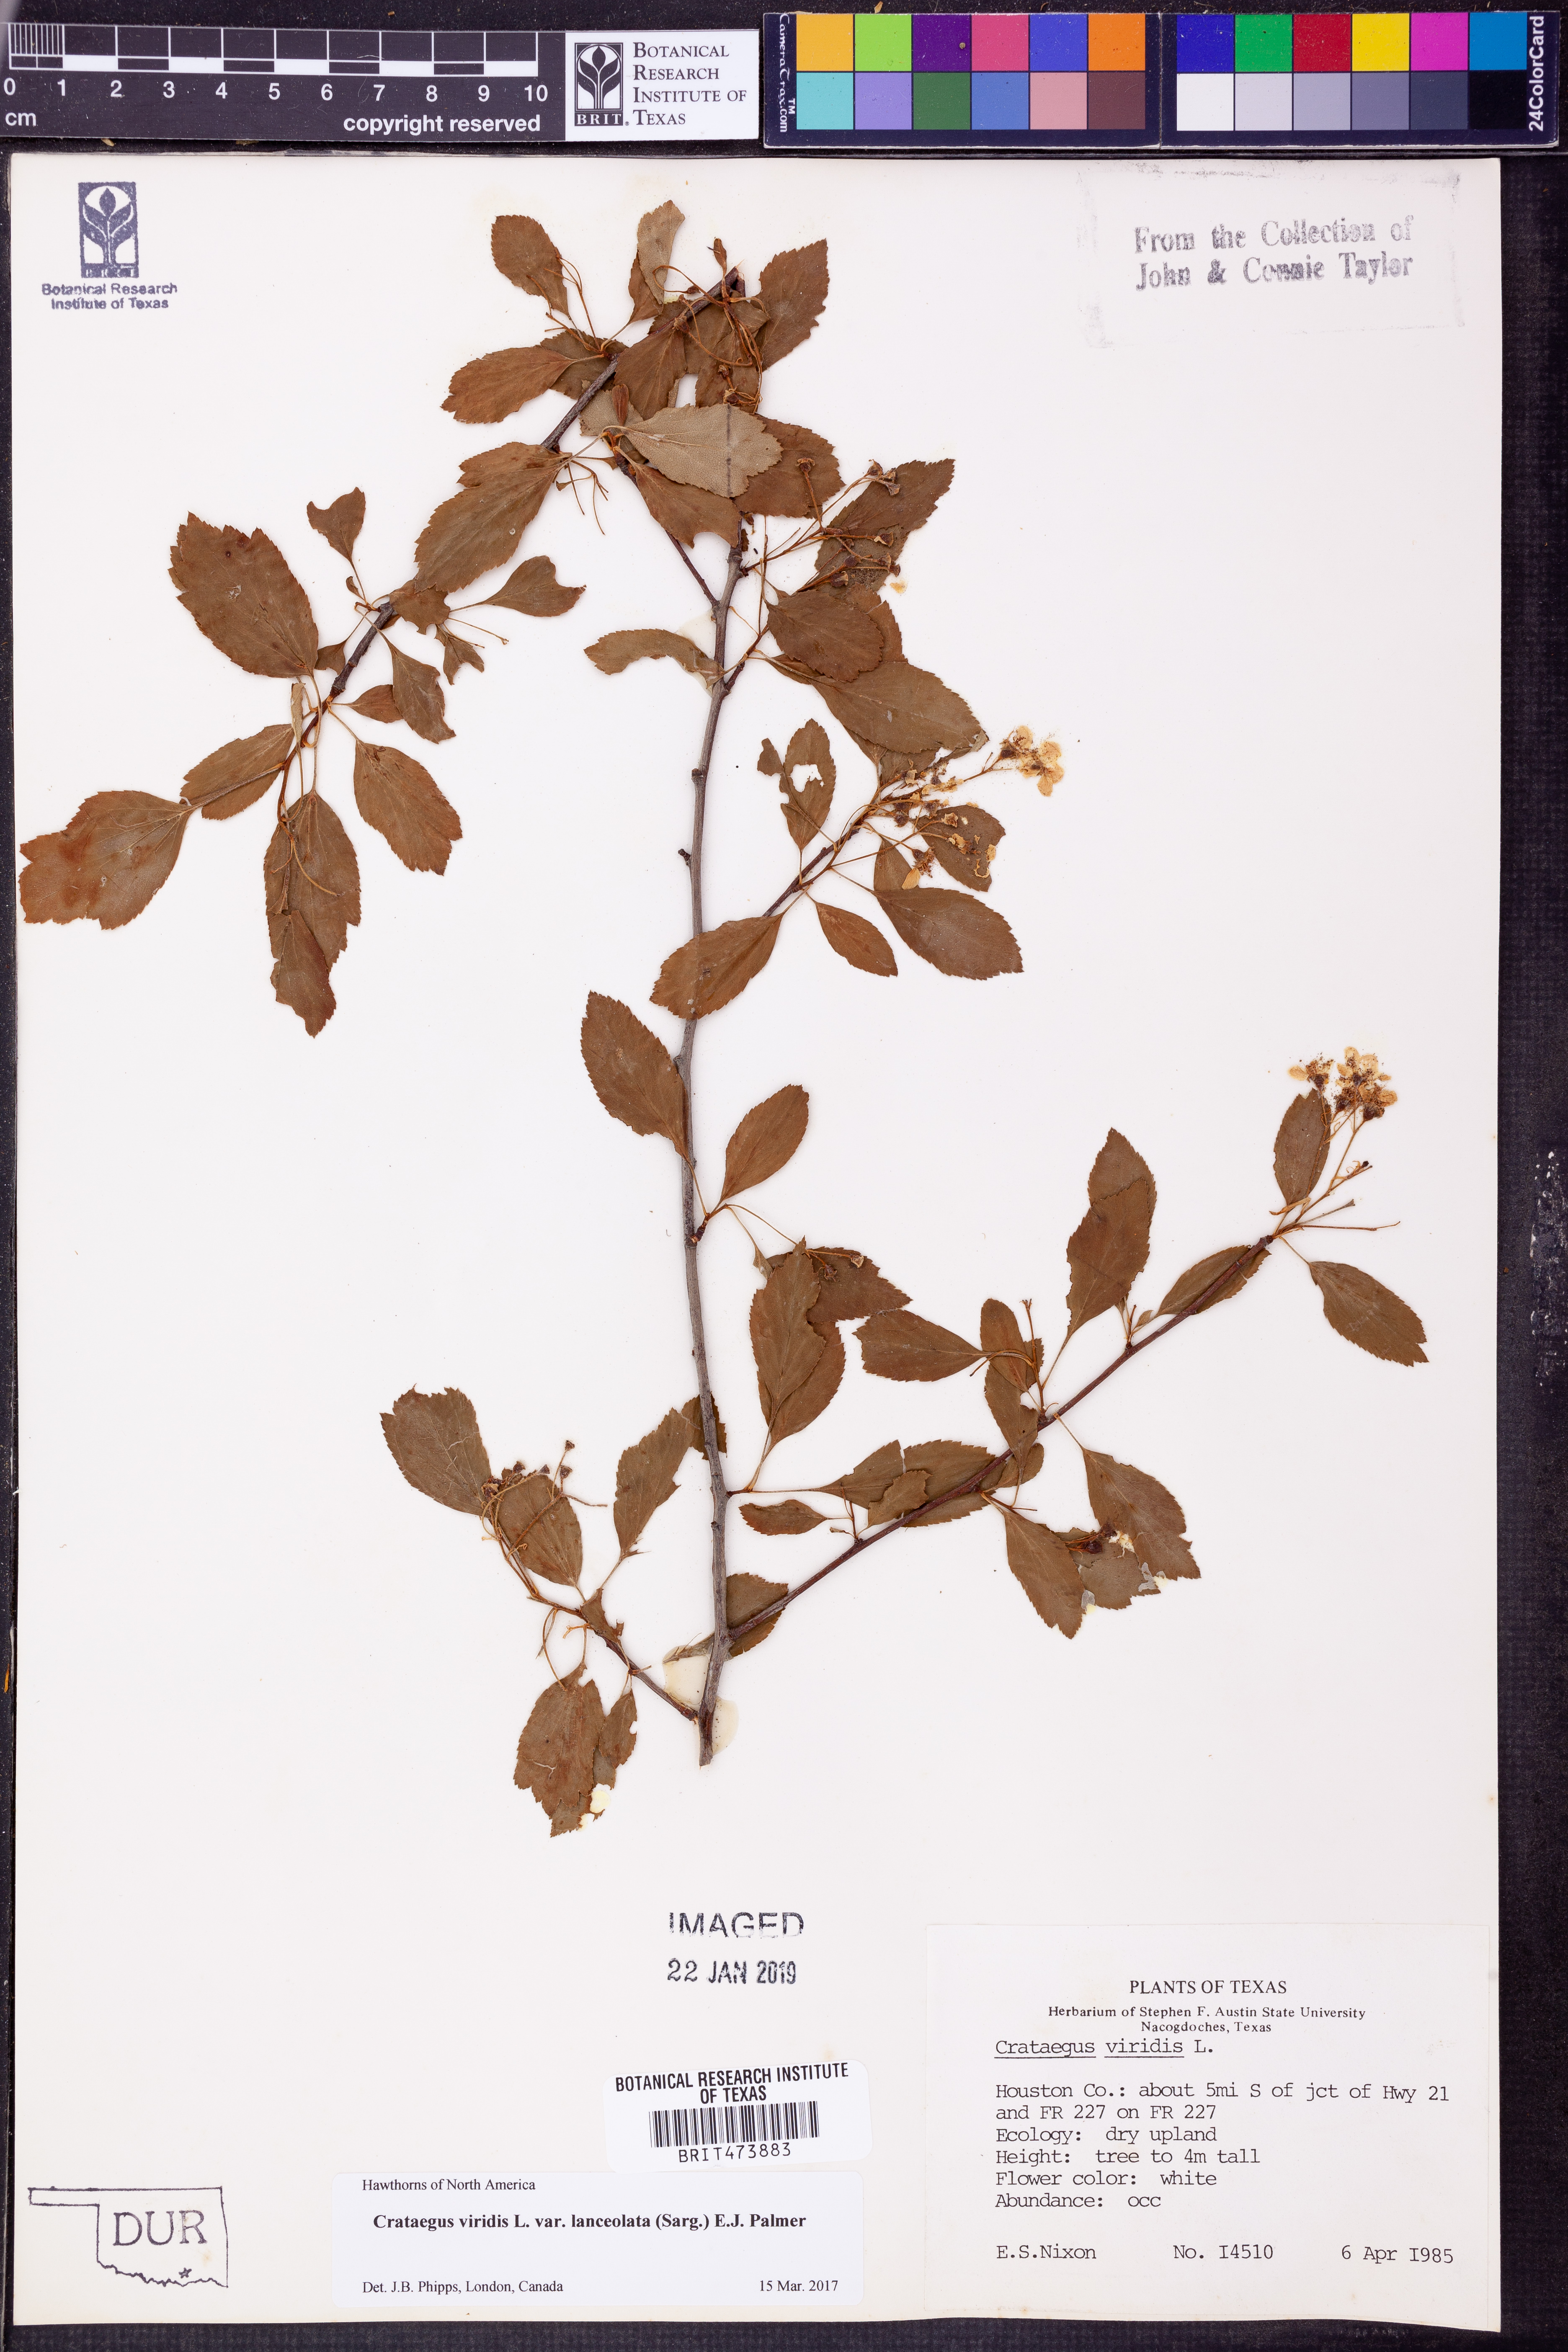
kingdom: Plantae
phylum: Tracheophyta
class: Magnoliopsida
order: Rosales
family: Rosaceae
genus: Crataegus
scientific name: Crataegus viridis
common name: Southernthorn
